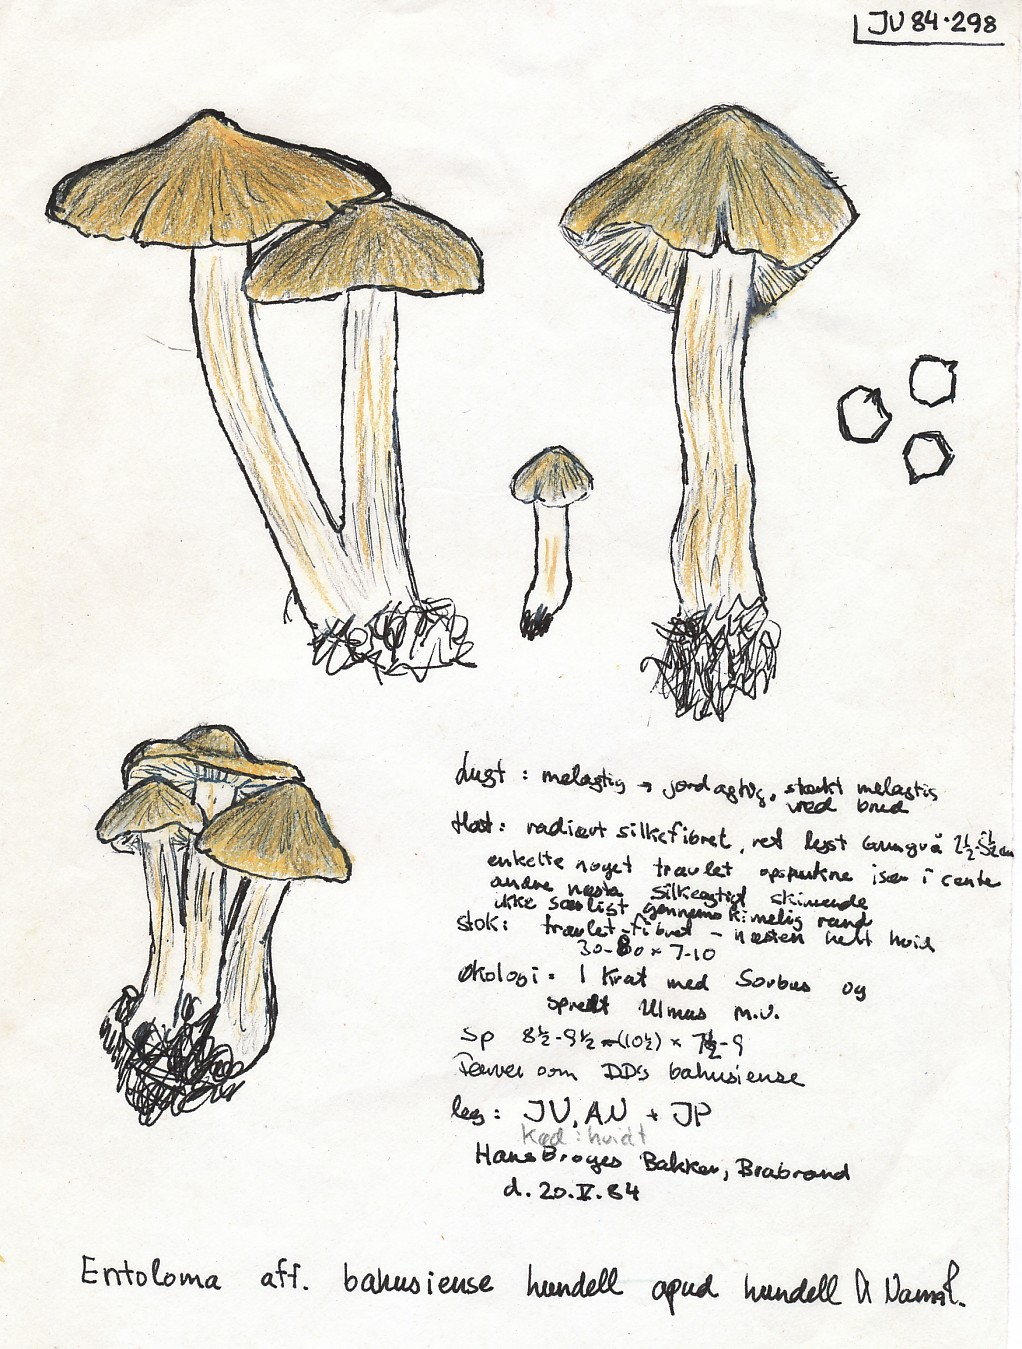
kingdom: Fungi
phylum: Basidiomycota
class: Agaricomycetes
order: Agaricales
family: Entolomataceae
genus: Entoloma
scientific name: Entoloma aprile
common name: maj-rødblad
